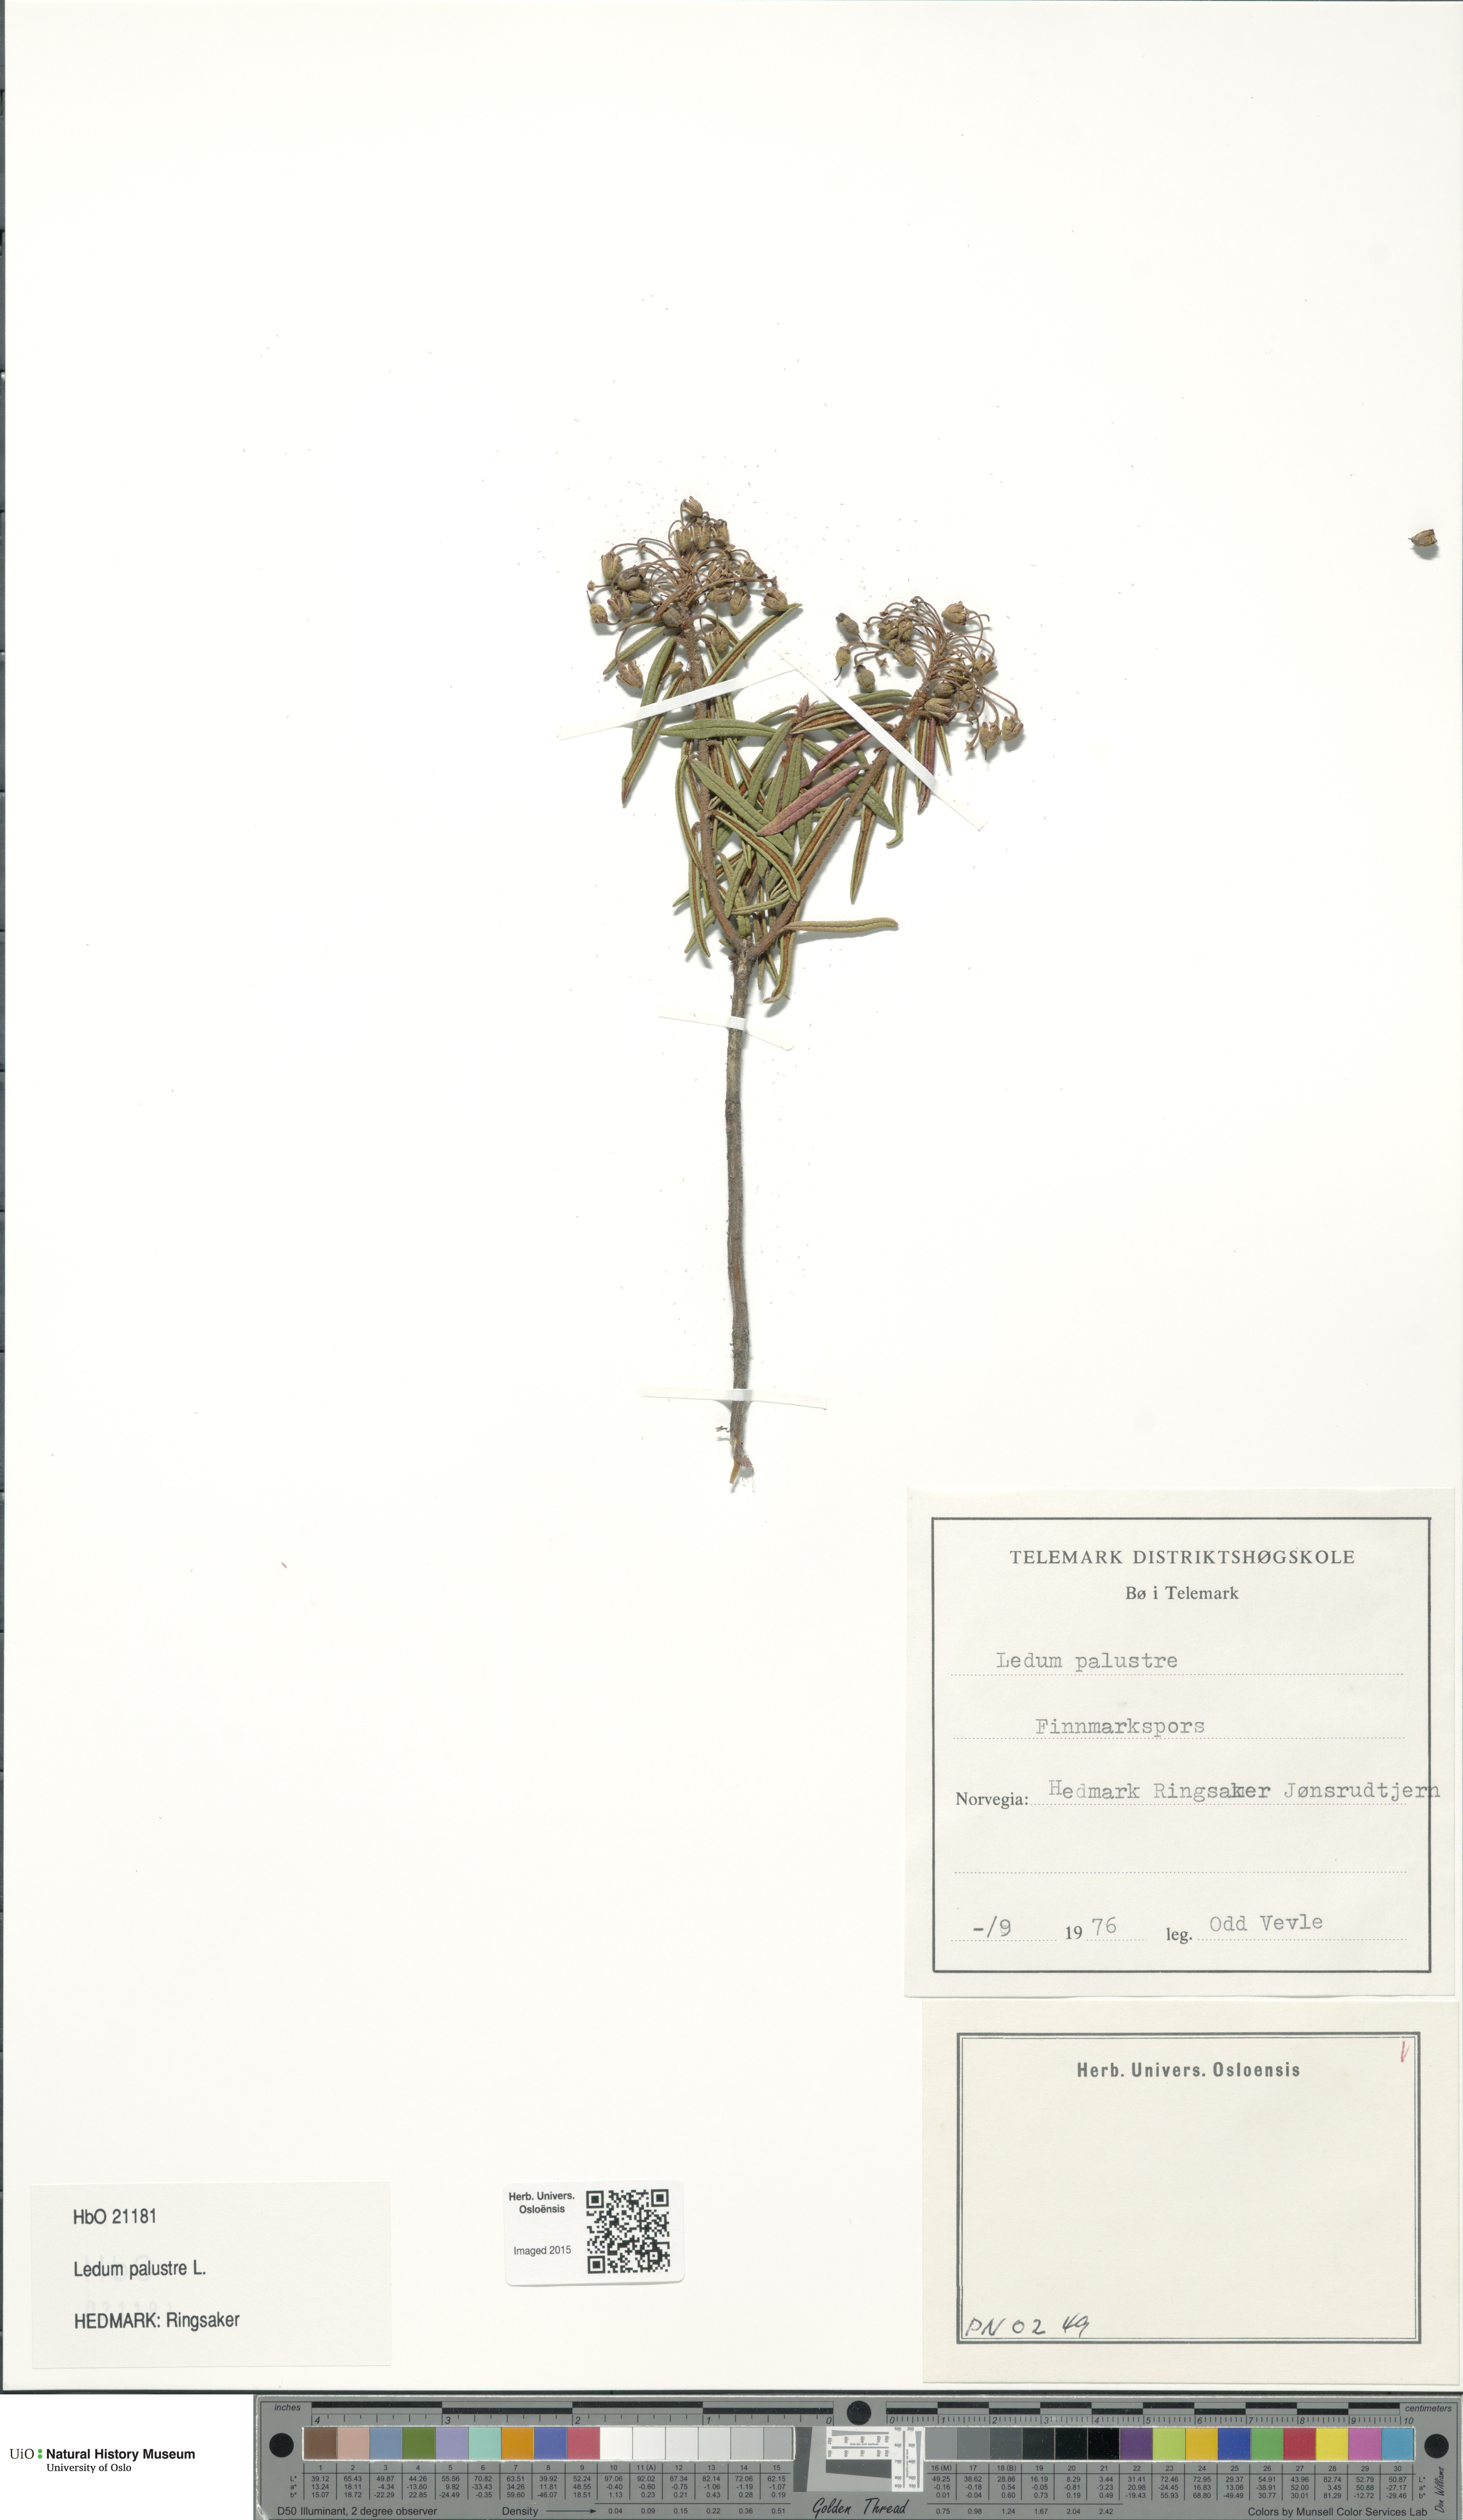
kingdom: Plantae
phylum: Tracheophyta
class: Magnoliopsida
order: Ericales
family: Ericaceae
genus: Rhododendron
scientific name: Rhododendron tomentosum
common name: Marsh labrador tea
